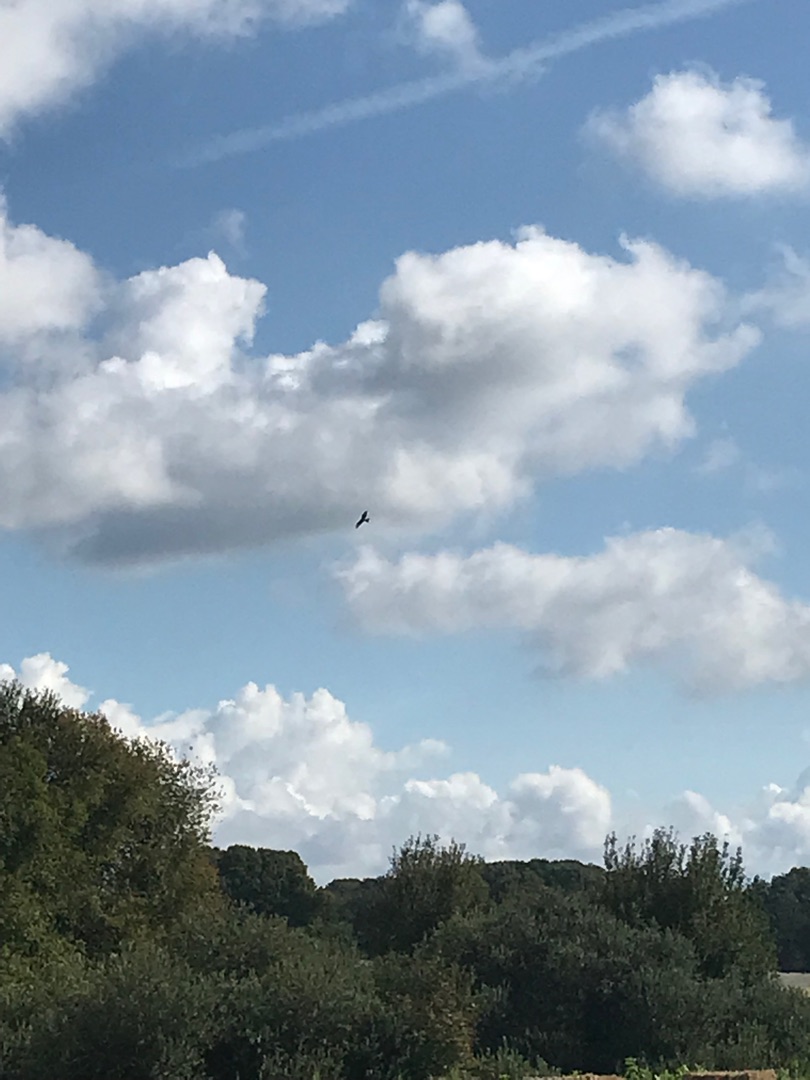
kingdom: Animalia
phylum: Chordata
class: Aves
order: Accipitriformes
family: Accipitridae
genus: Milvus
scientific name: Milvus milvus
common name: Rød glente
